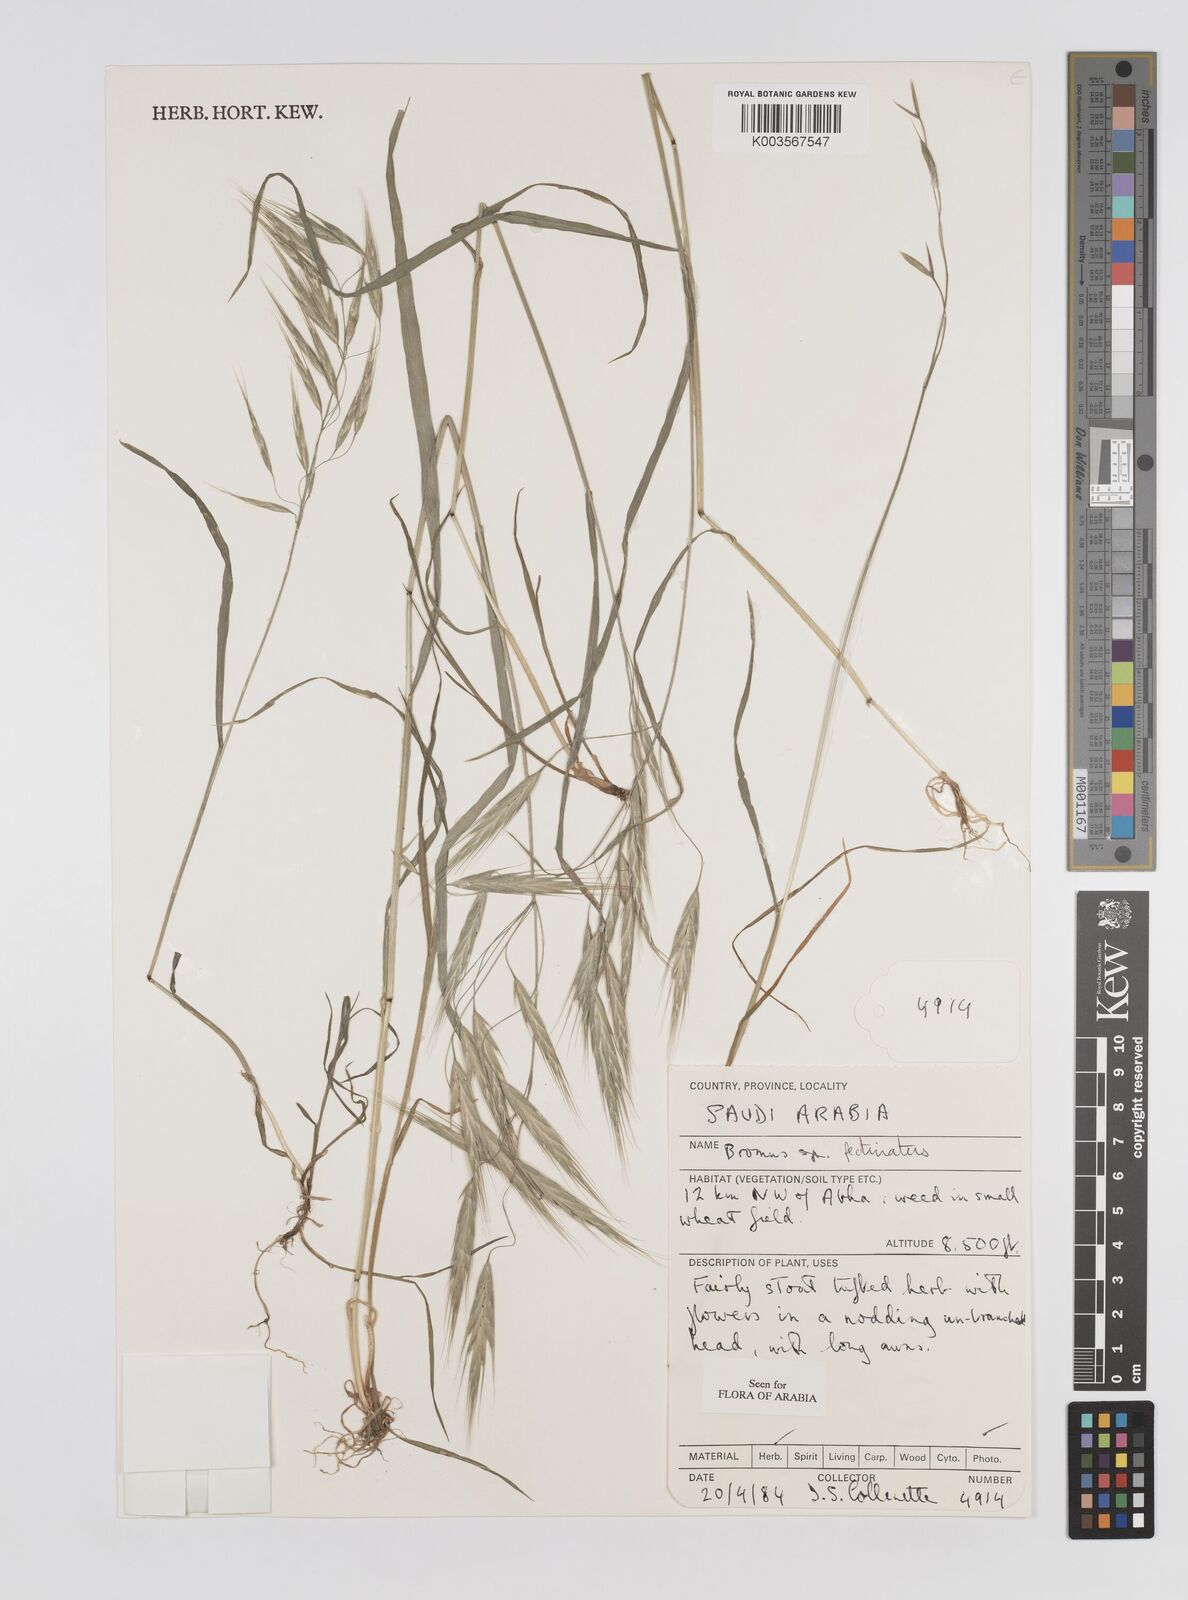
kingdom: Plantae
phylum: Tracheophyta
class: Liliopsida
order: Poales
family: Poaceae
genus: Bromus
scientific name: Bromus pectinatus
